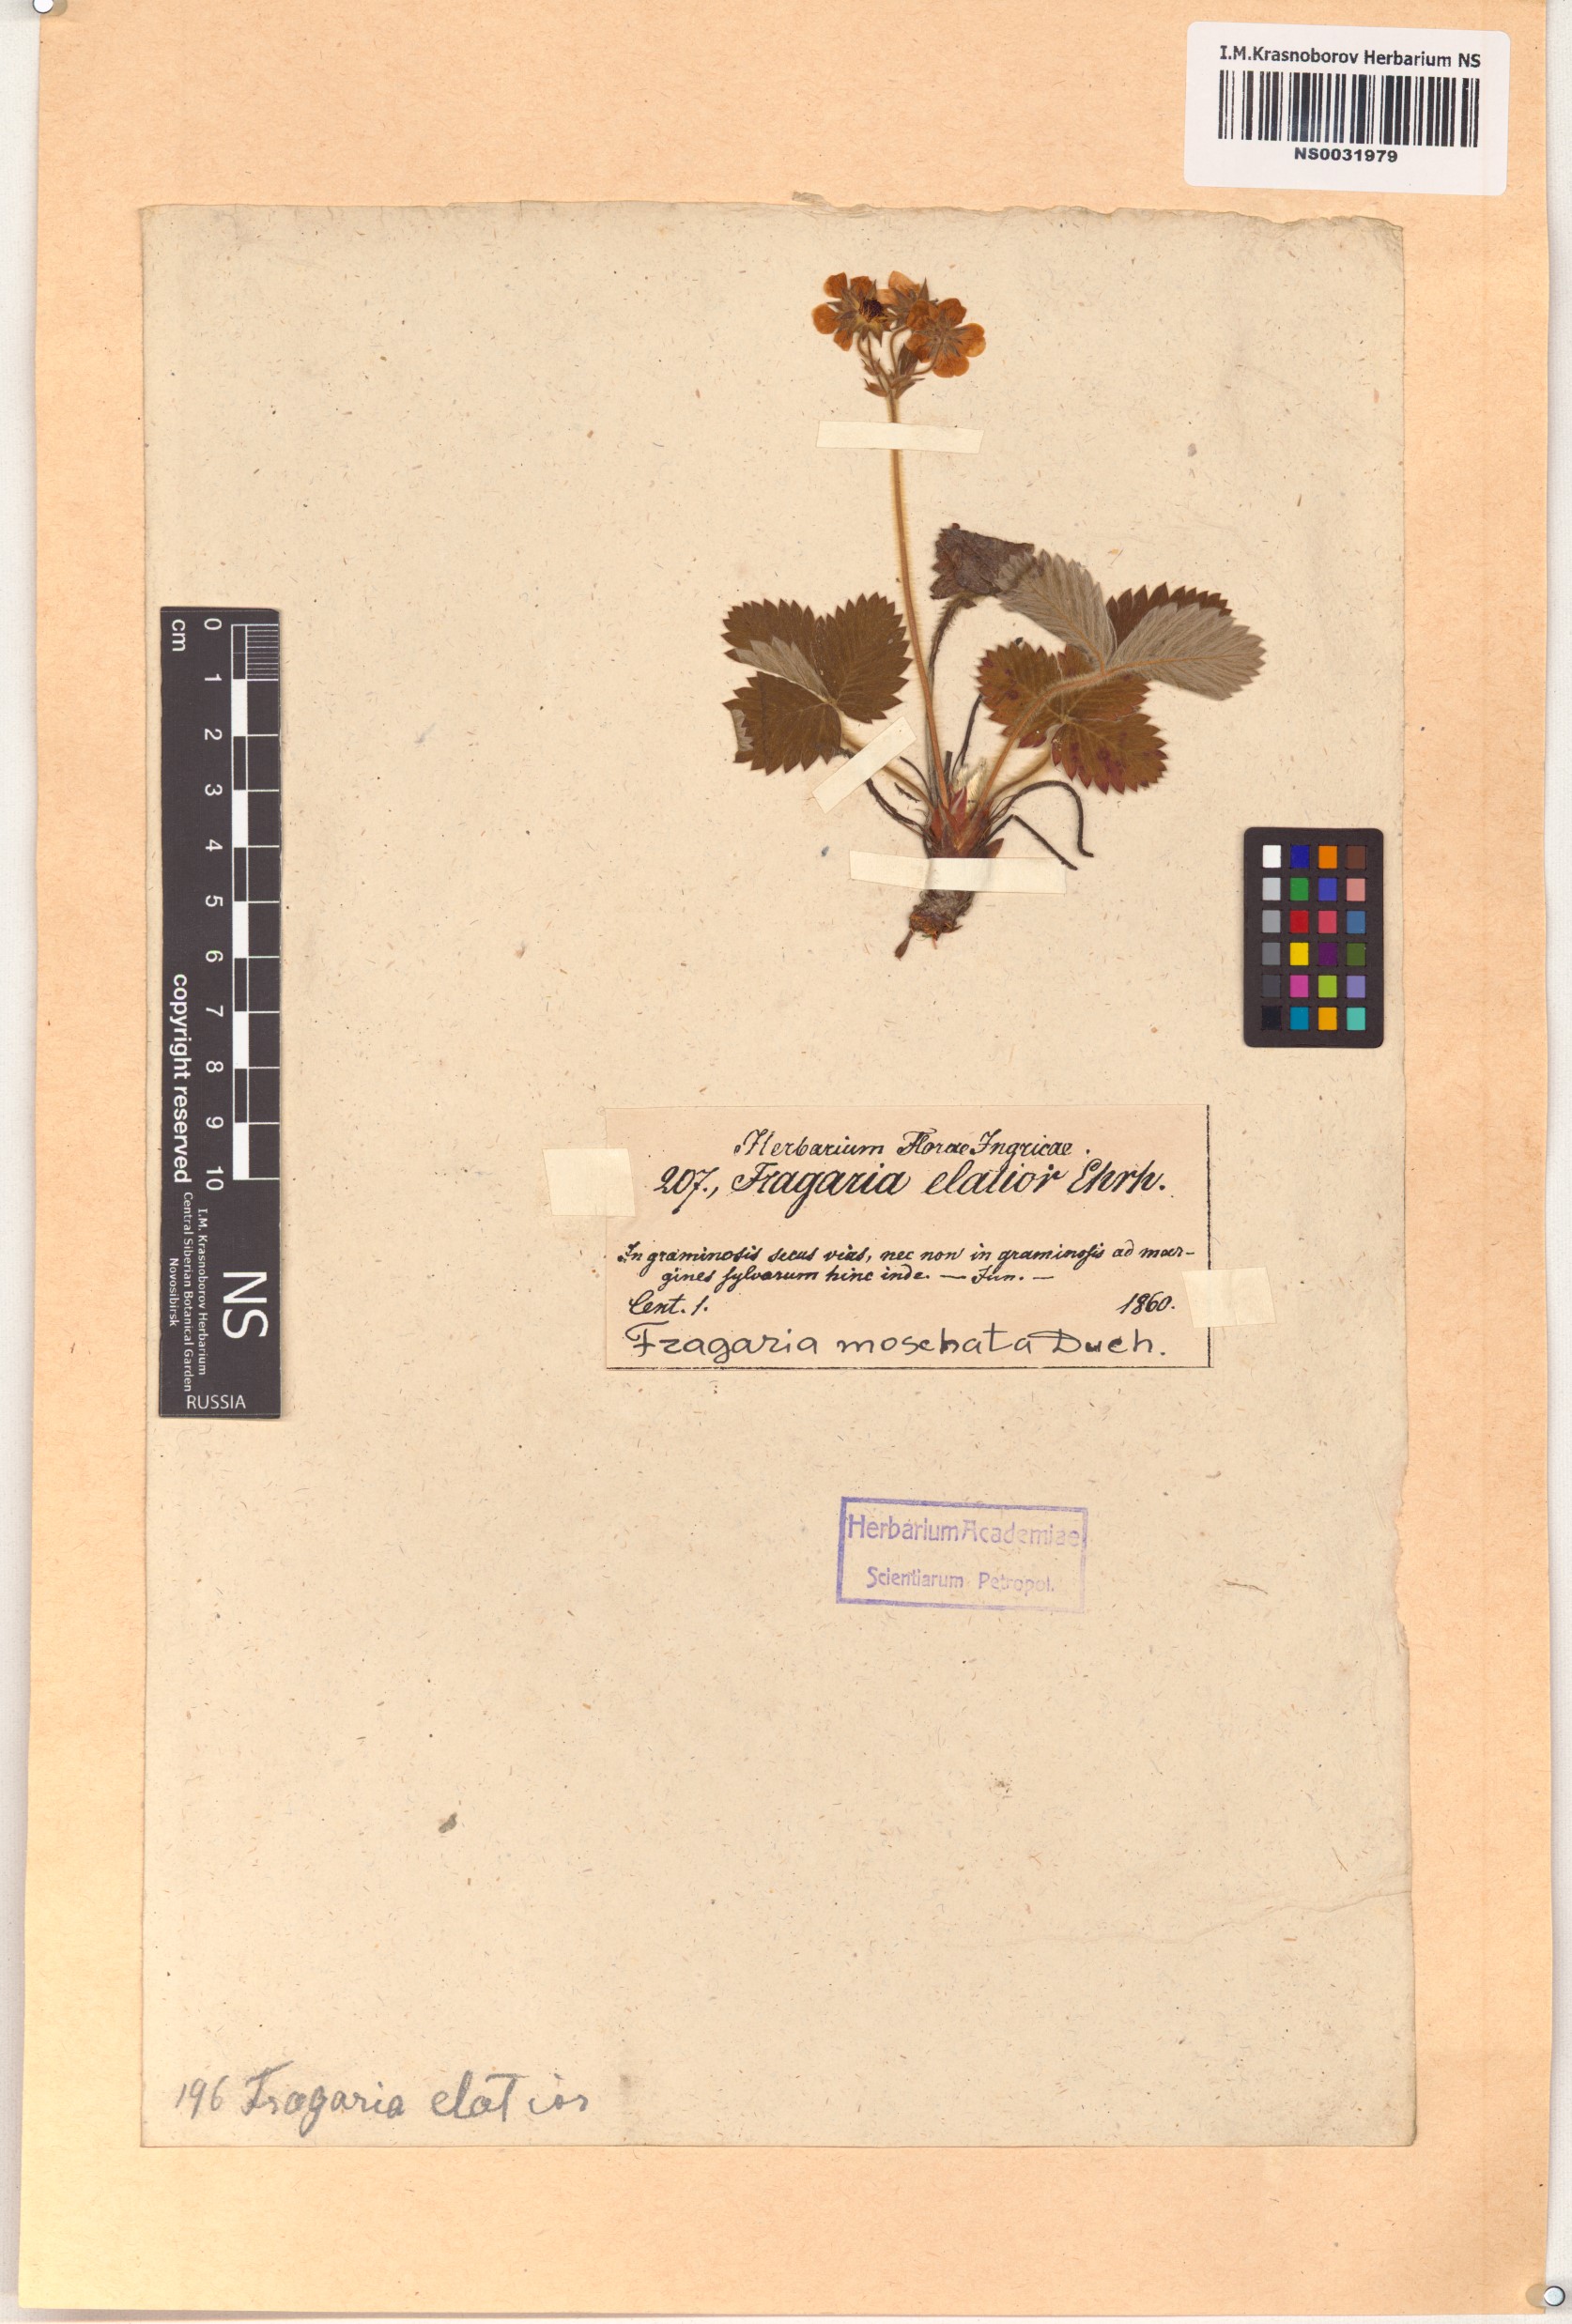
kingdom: Plantae
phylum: Tracheophyta
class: Magnoliopsida
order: Rosales
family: Rosaceae
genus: Fragaria
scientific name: Fragaria moschata
